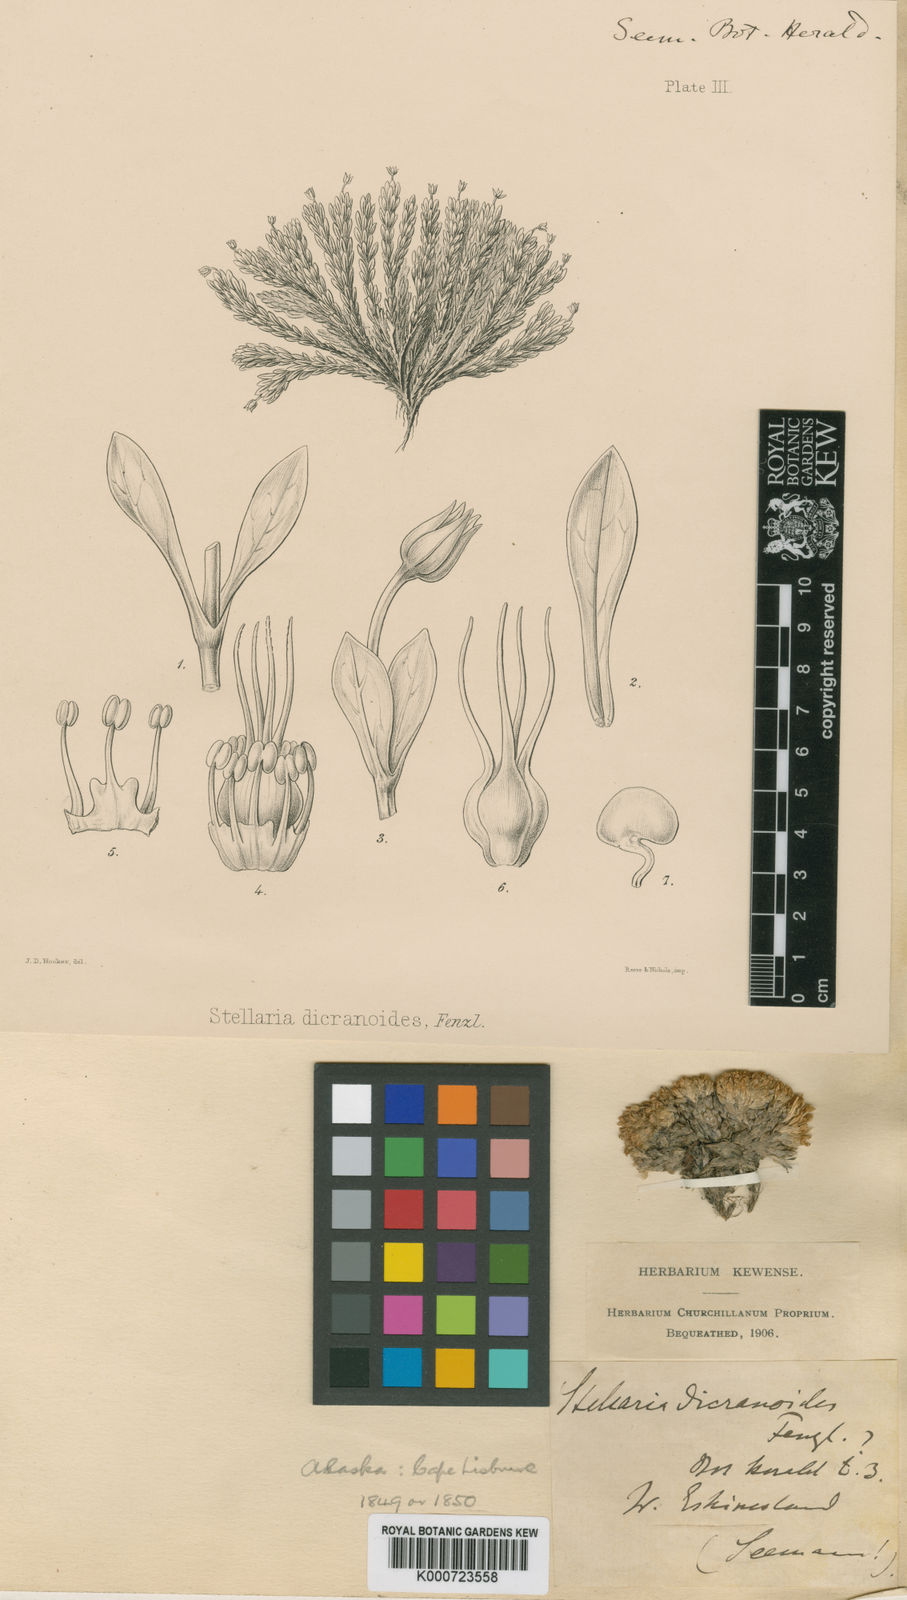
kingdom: Plantae
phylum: Tracheophyta
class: Magnoliopsida
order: Caryophyllales
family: Caryophyllaceae
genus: Stellaria
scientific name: Stellaria dicranoides
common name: Chamisso's starwort
